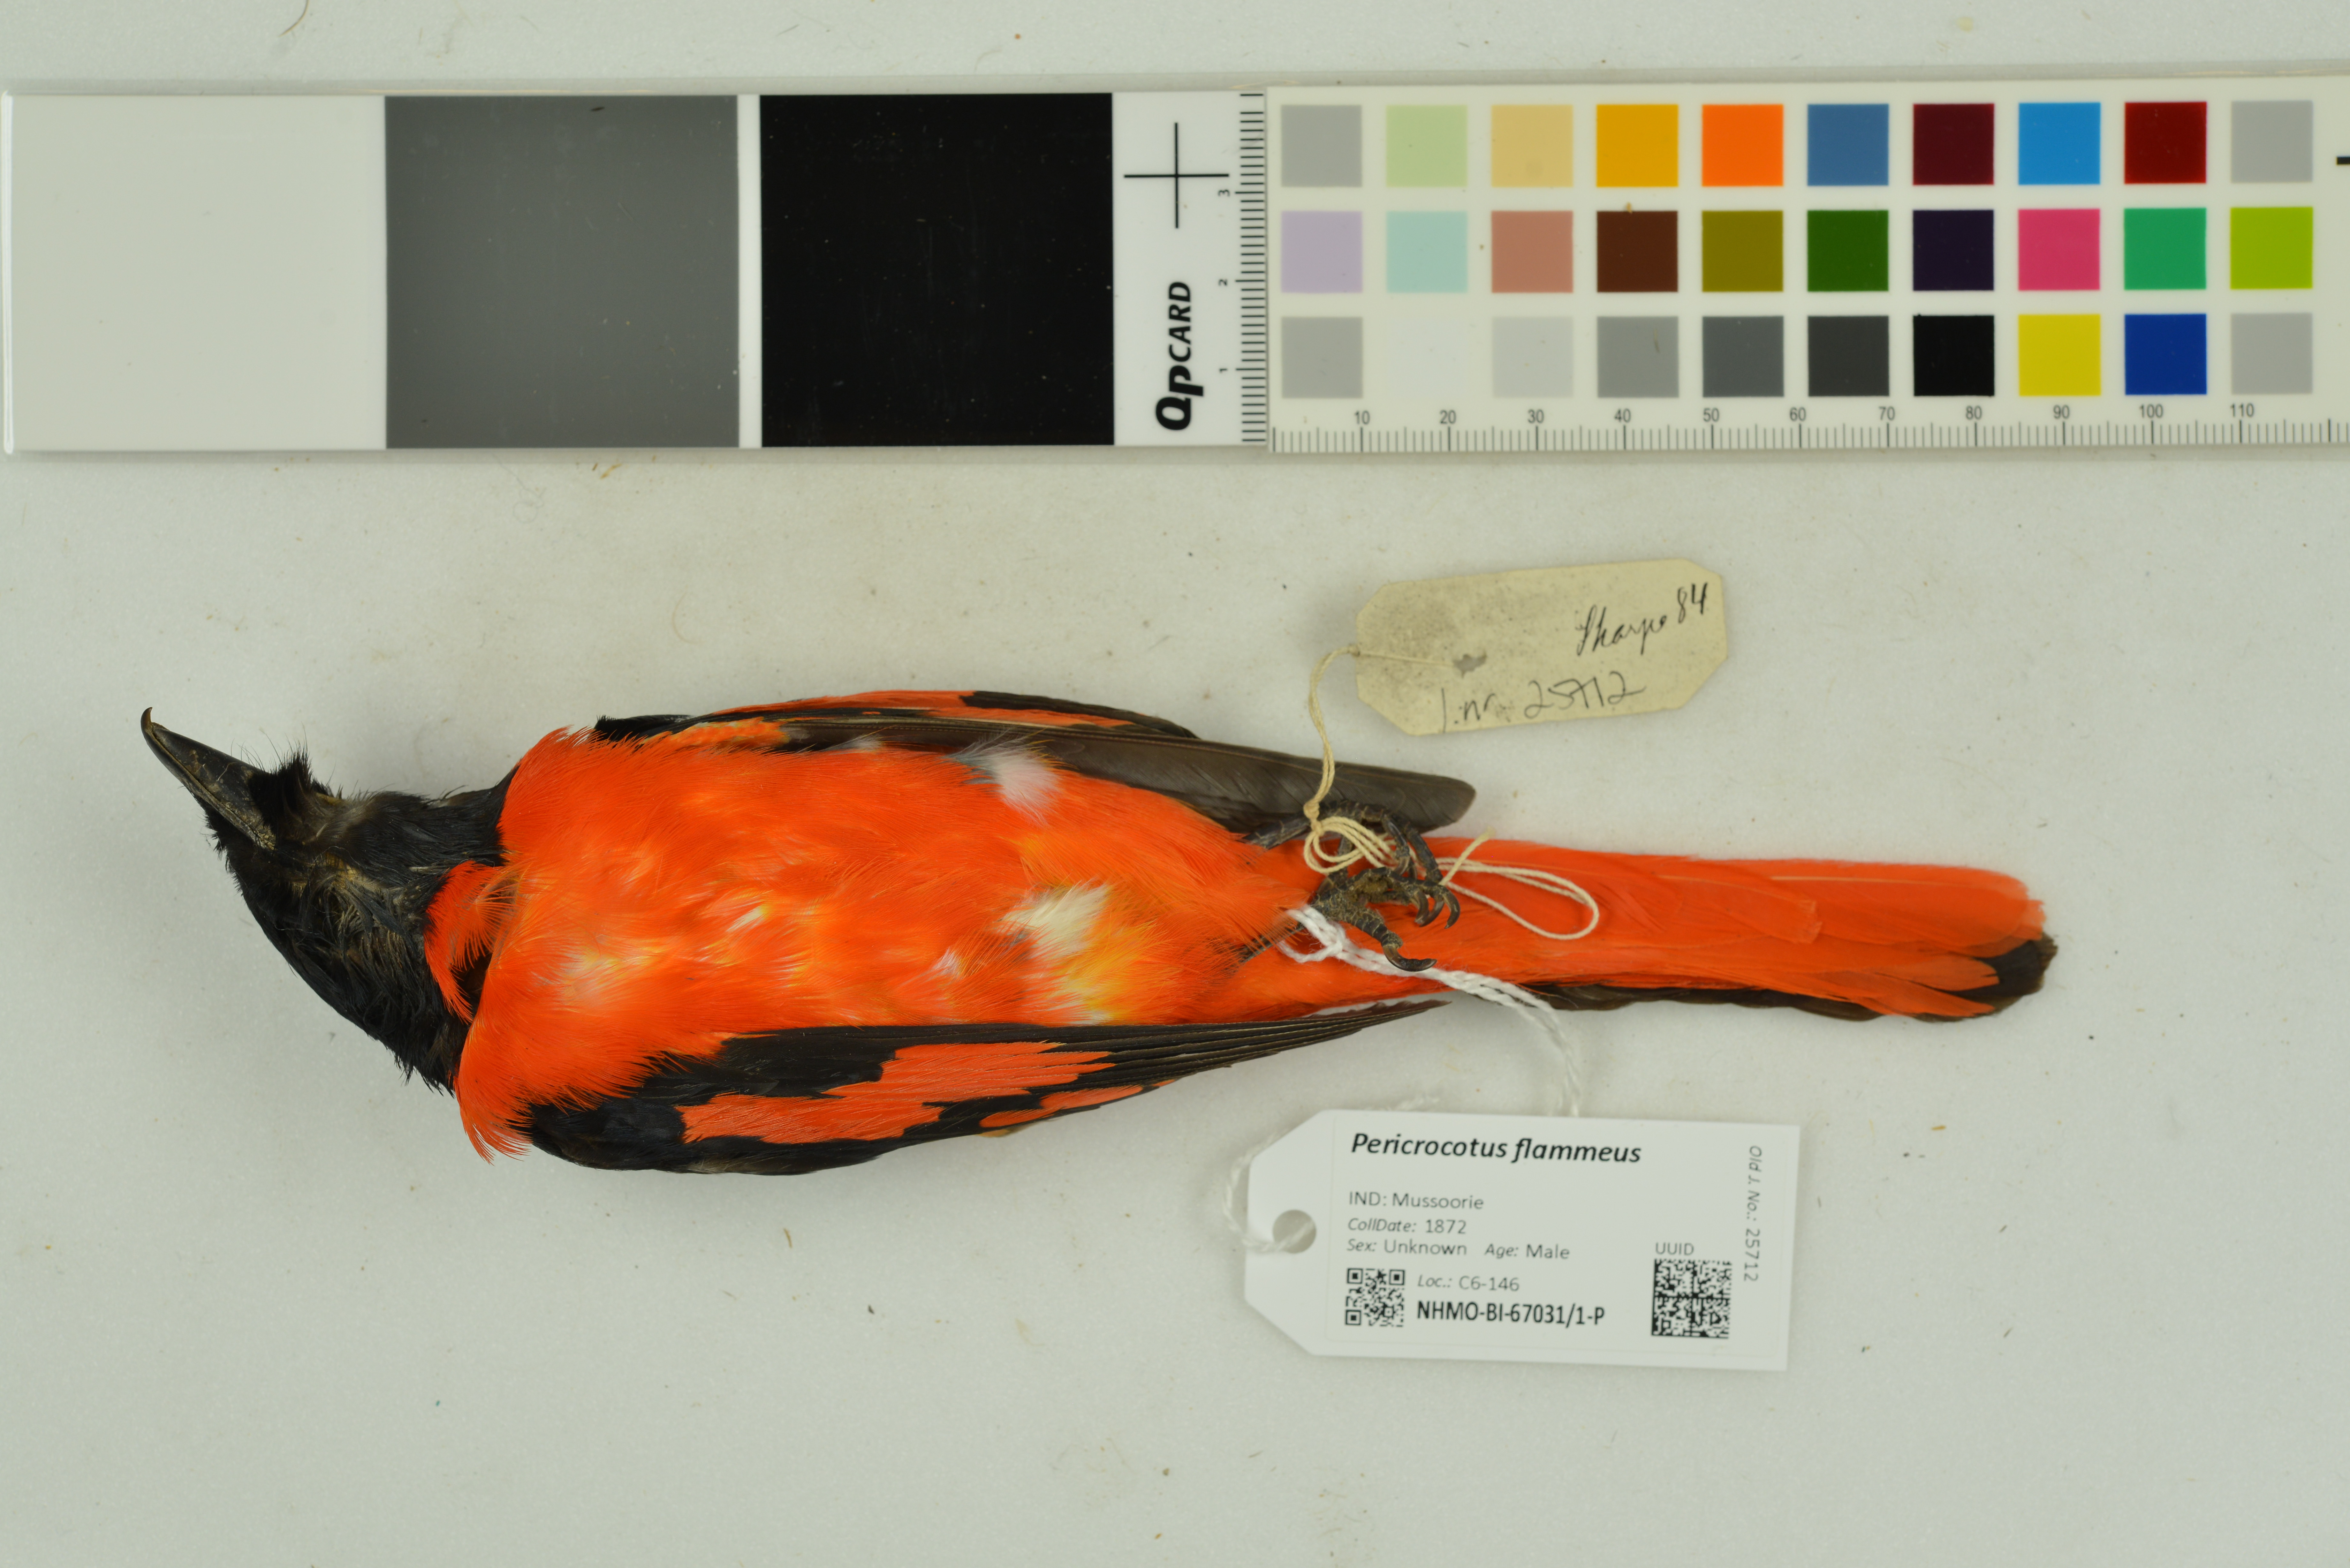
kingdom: Animalia
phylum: Chordata
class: Aves
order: Passeriformes
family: Campephagidae
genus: Pericrocotus
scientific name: Pericrocotus flammeus
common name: Orange minivet
